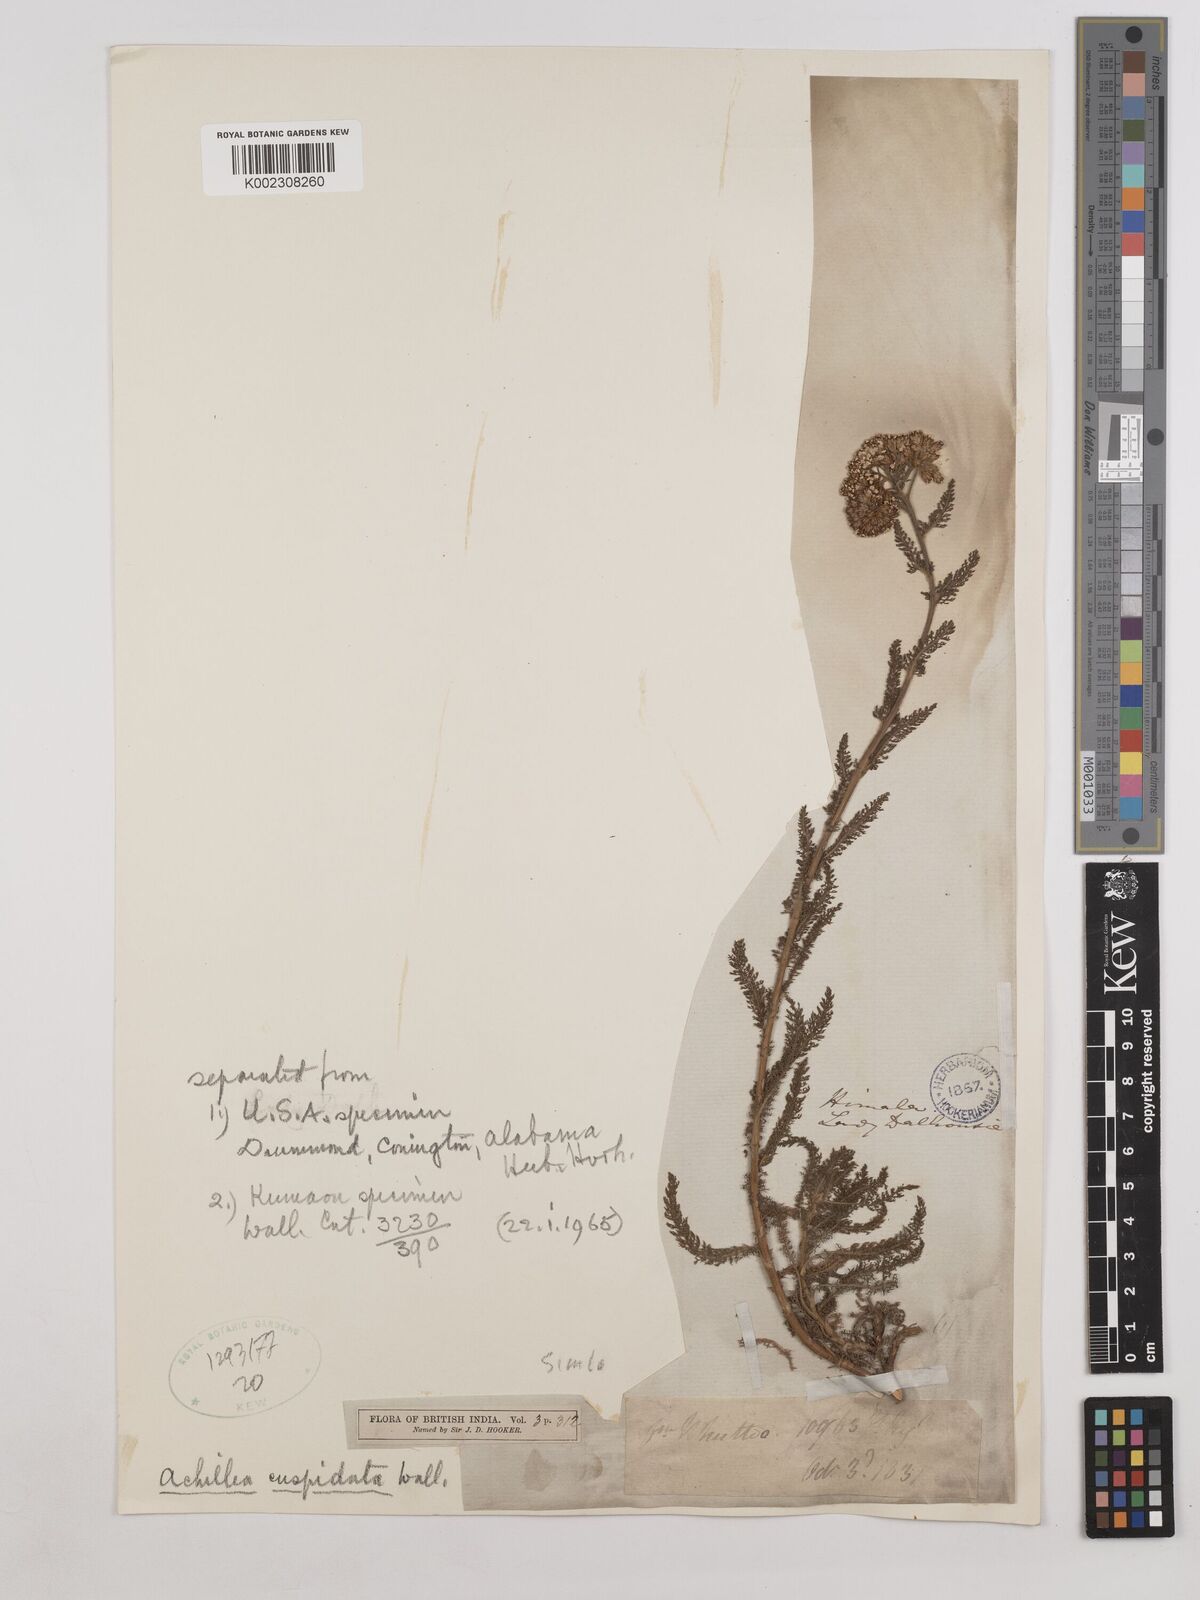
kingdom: Plantae
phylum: Tracheophyta
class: Magnoliopsida
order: Asterales
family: Asteraceae
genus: Achillea
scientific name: Achillea millefolium
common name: Yarrow
